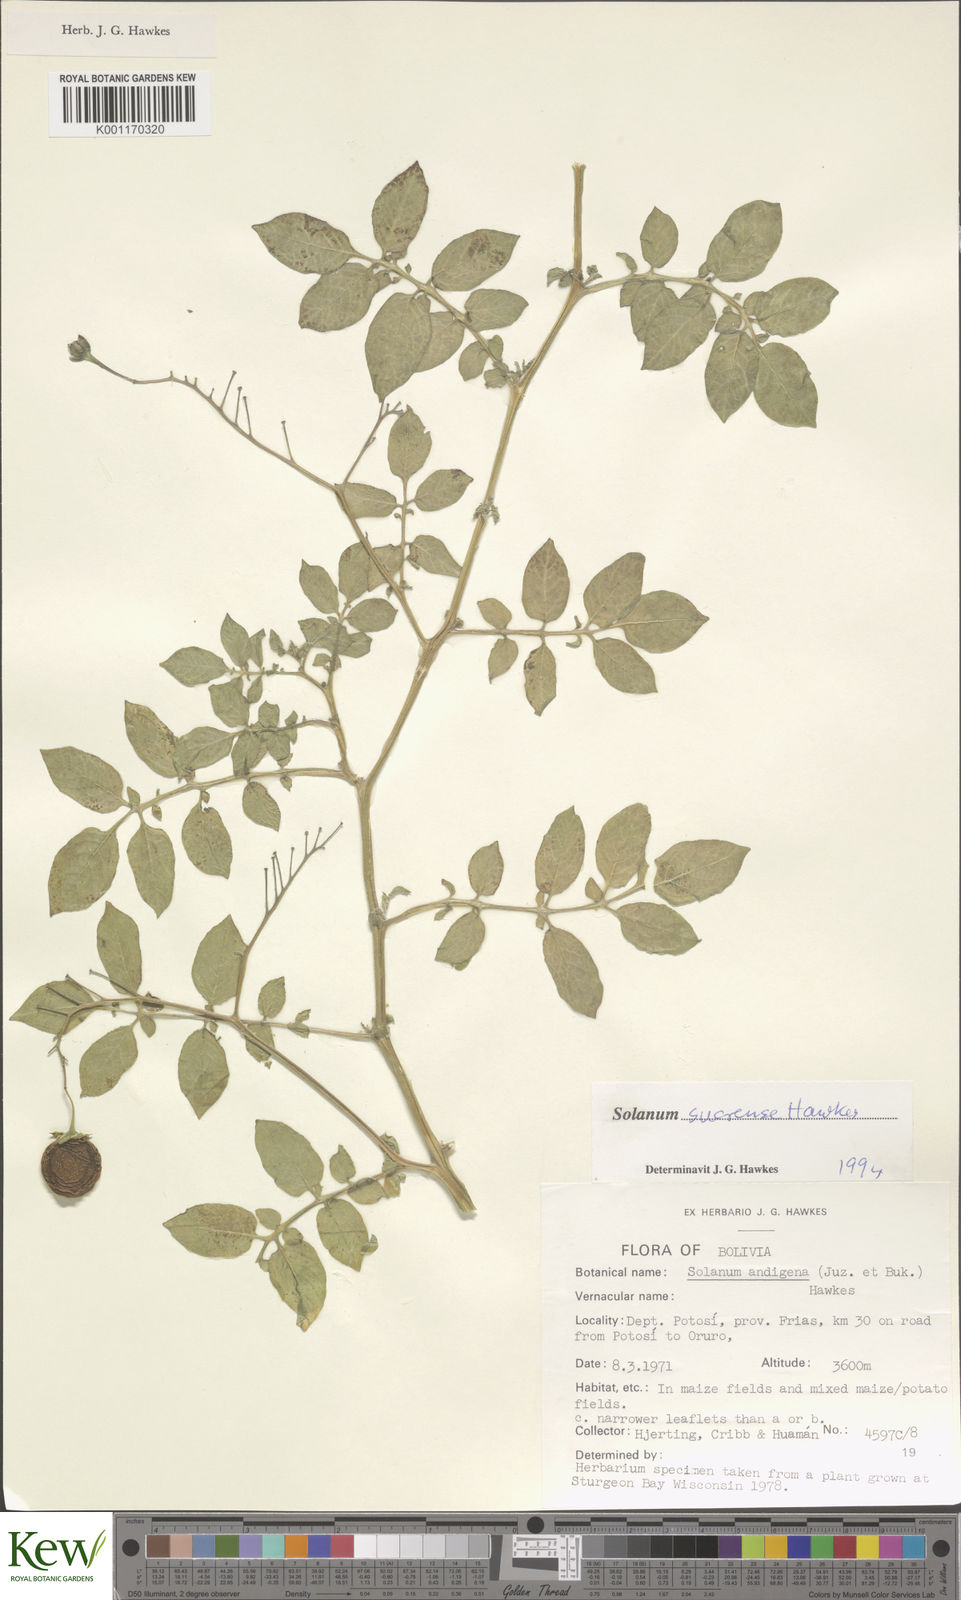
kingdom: Plantae
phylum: Tracheophyta
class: Magnoliopsida
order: Solanales
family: Solanaceae
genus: Solanum
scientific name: Solanum brevicaule
